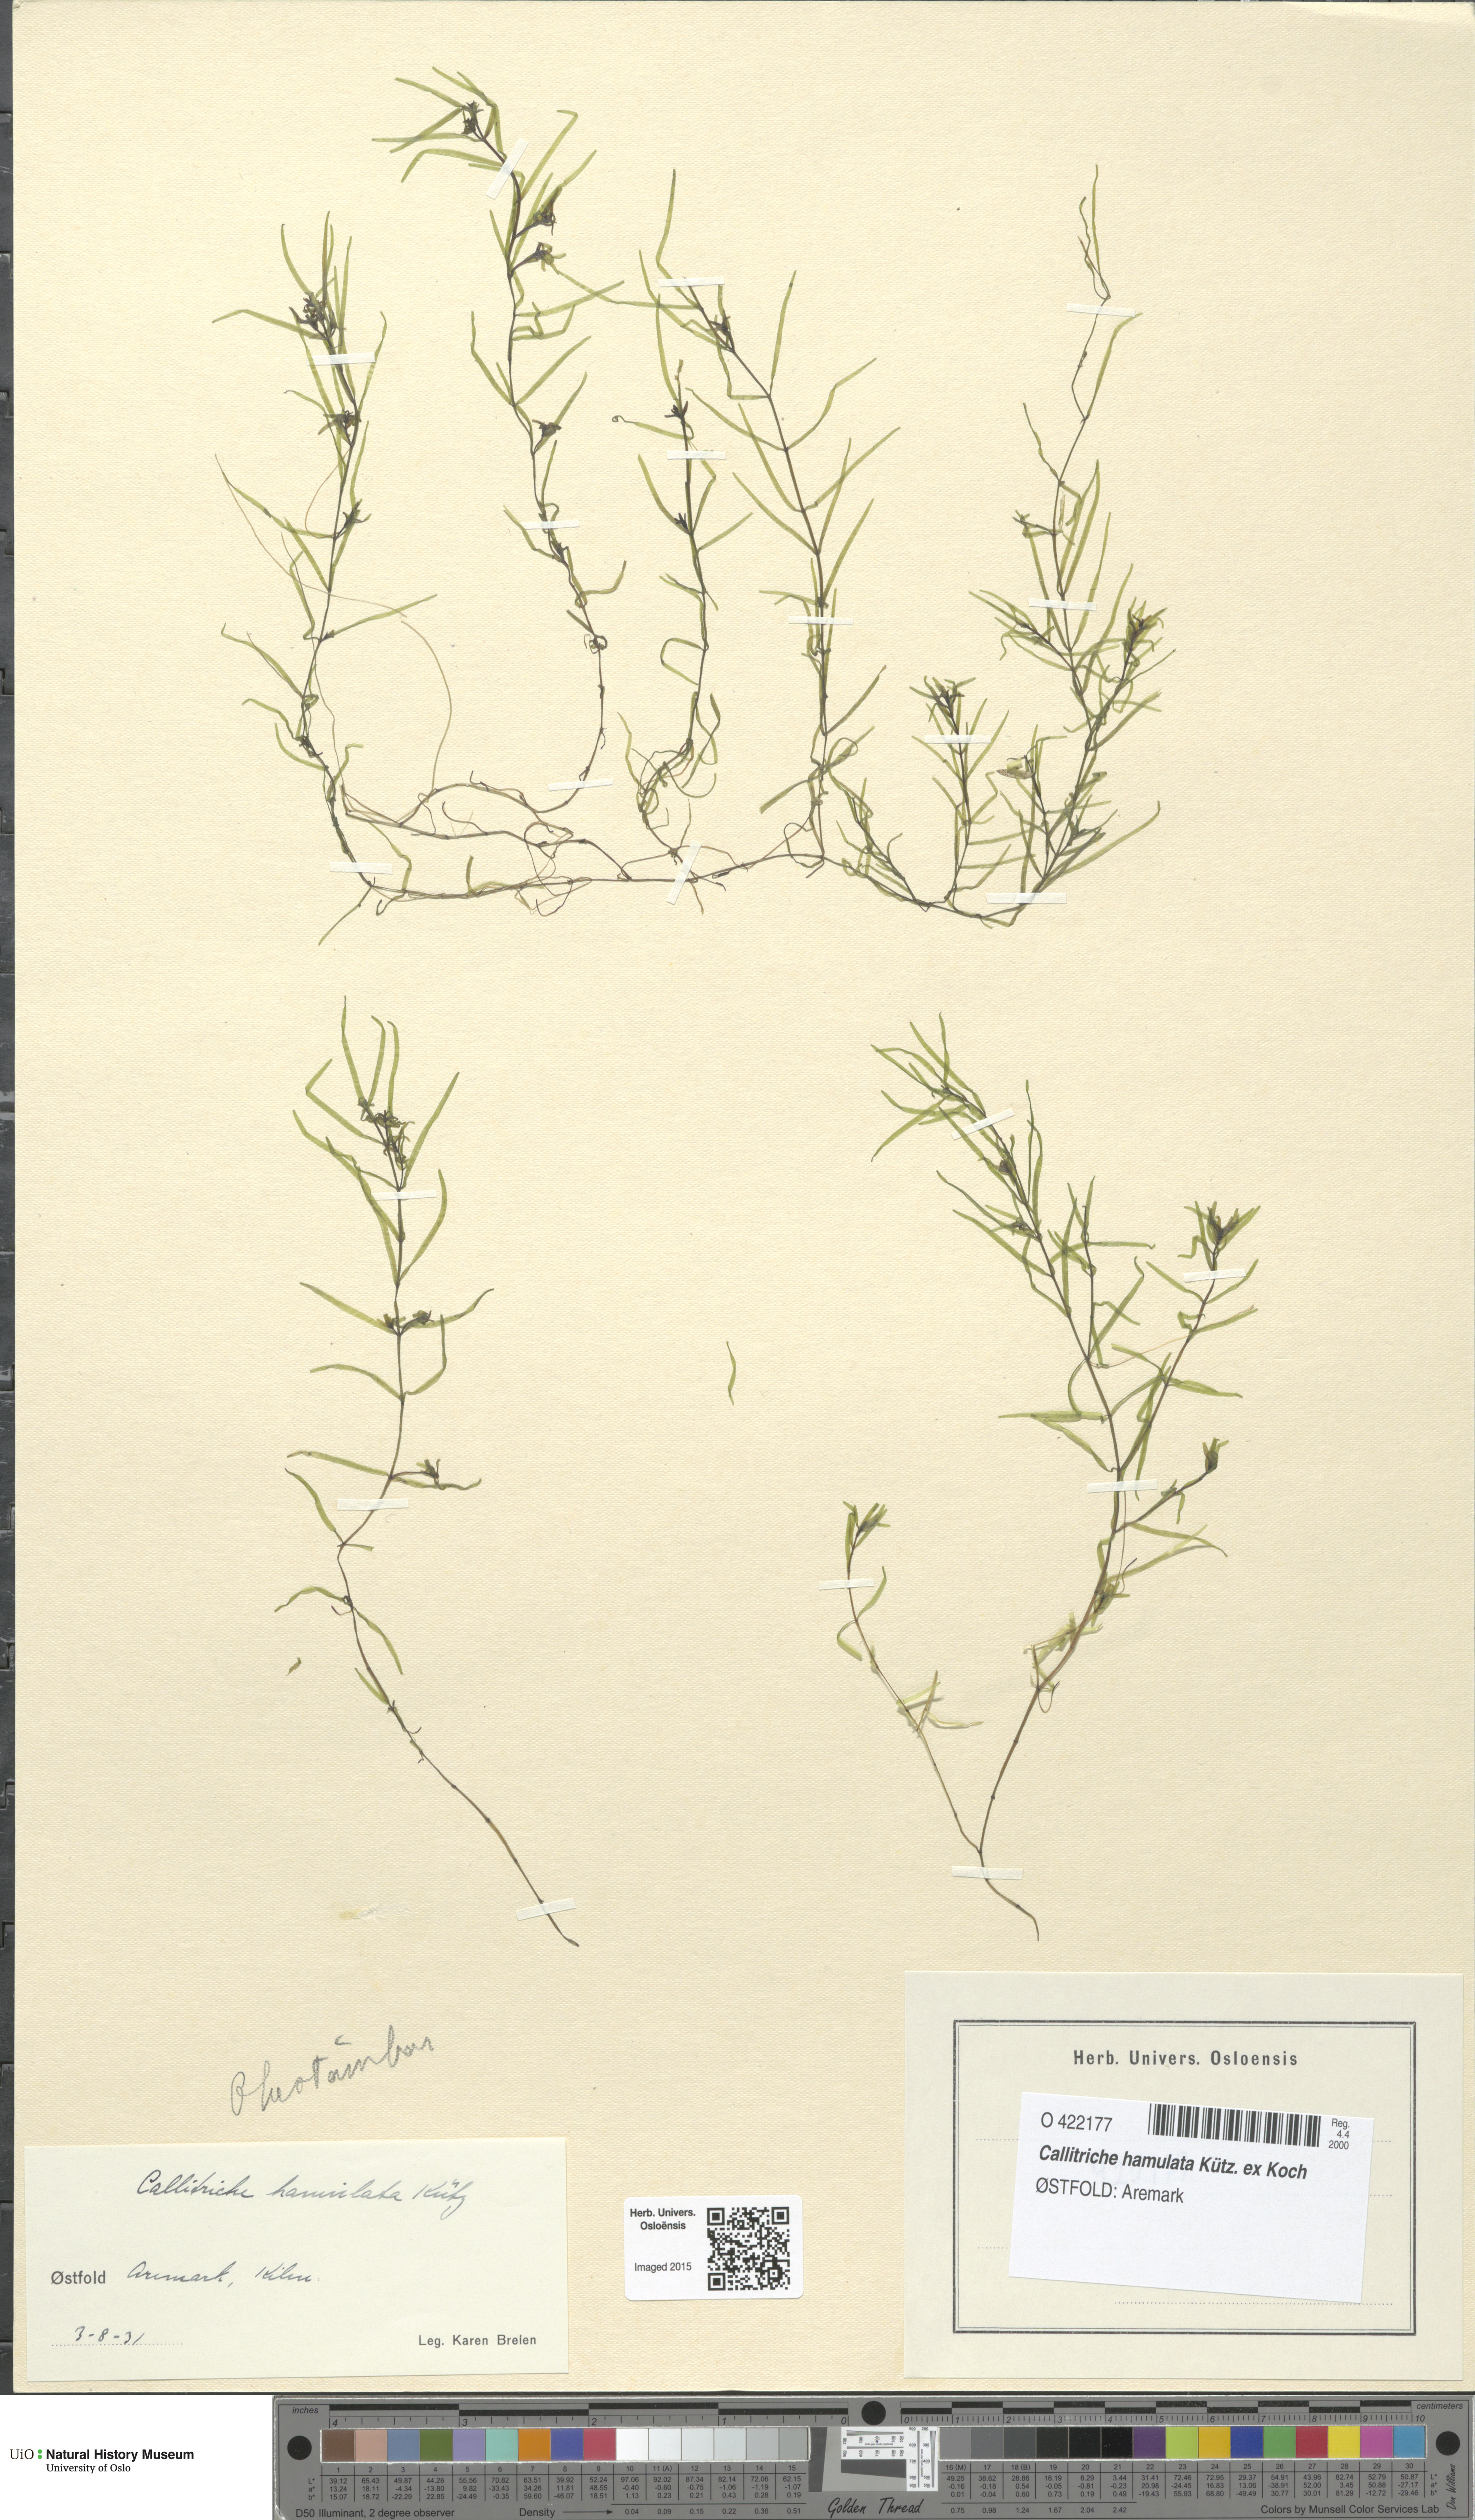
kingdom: Plantae
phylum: Tracheophyta
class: Magnoliopsida
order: Lamiales
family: Plantaginaceae
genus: Callitriche
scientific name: Callitriche hamulata
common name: Intermediate water-starwort
